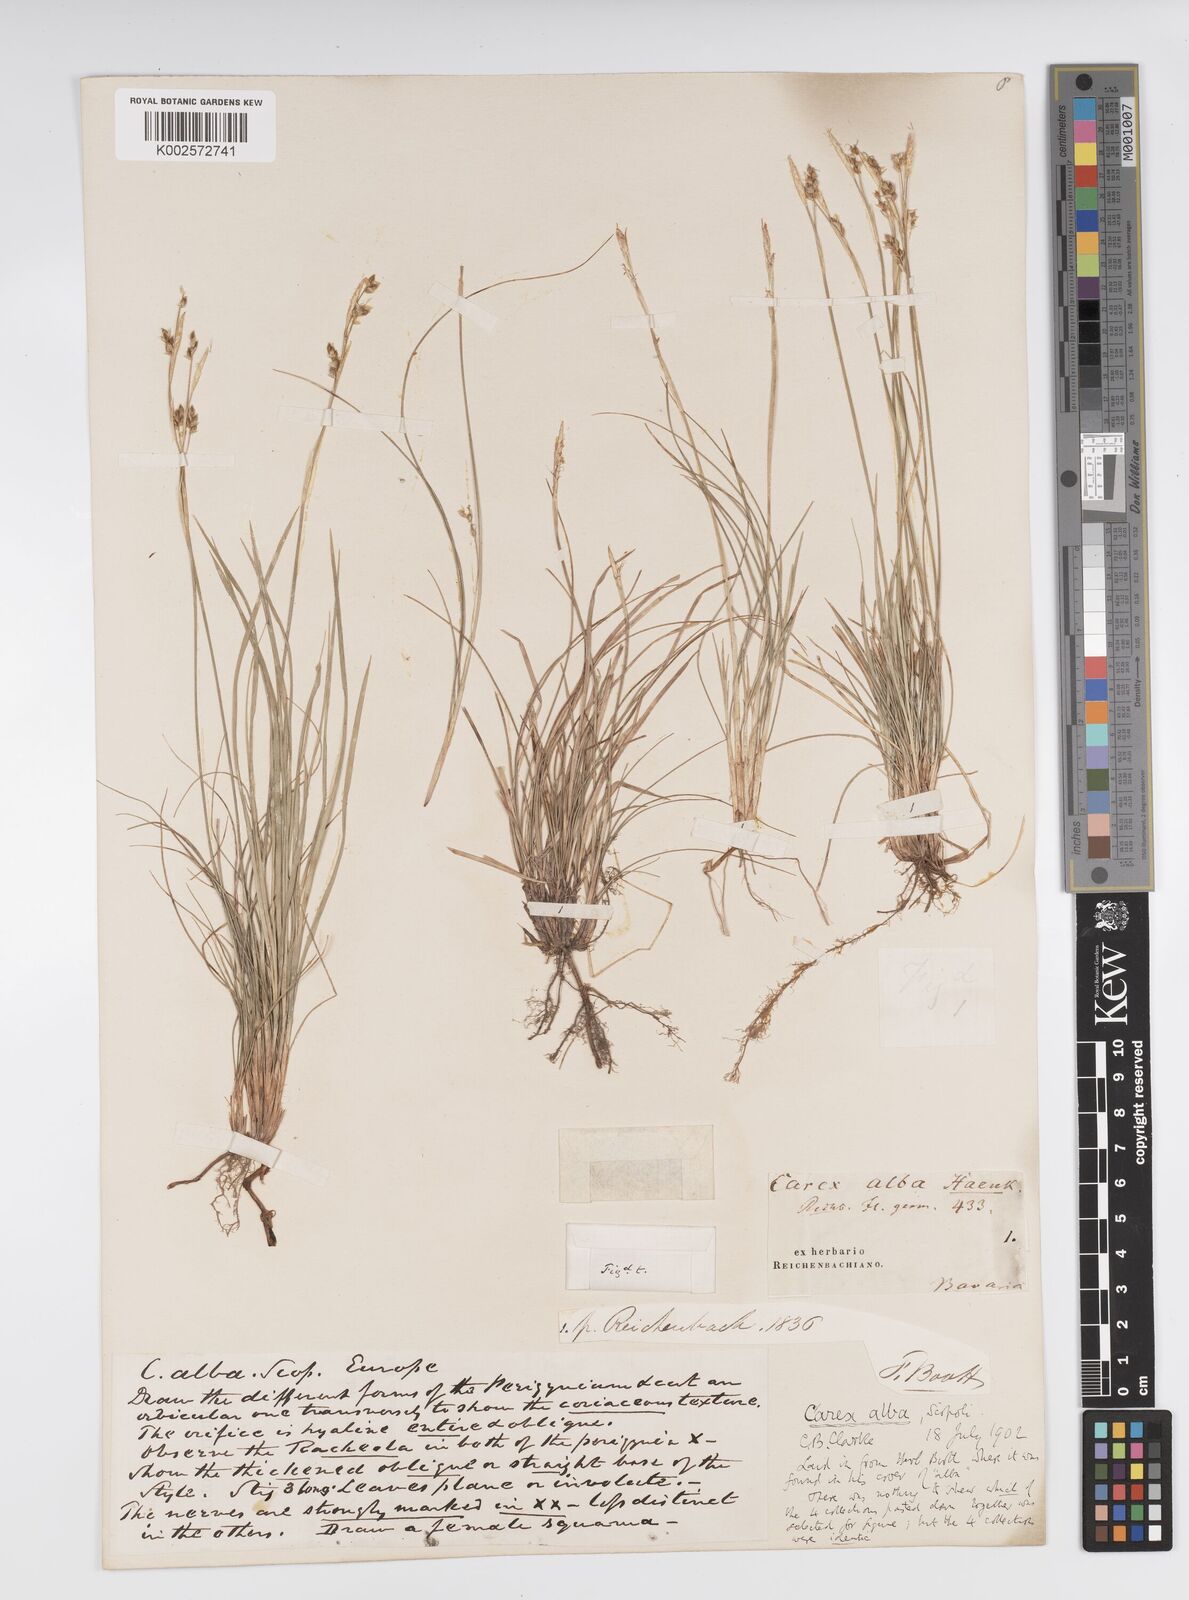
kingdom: Plantae
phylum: Tracheophyta
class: Liliopsida
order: Poales
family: Cyperaceae
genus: Carex
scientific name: Carex alba
